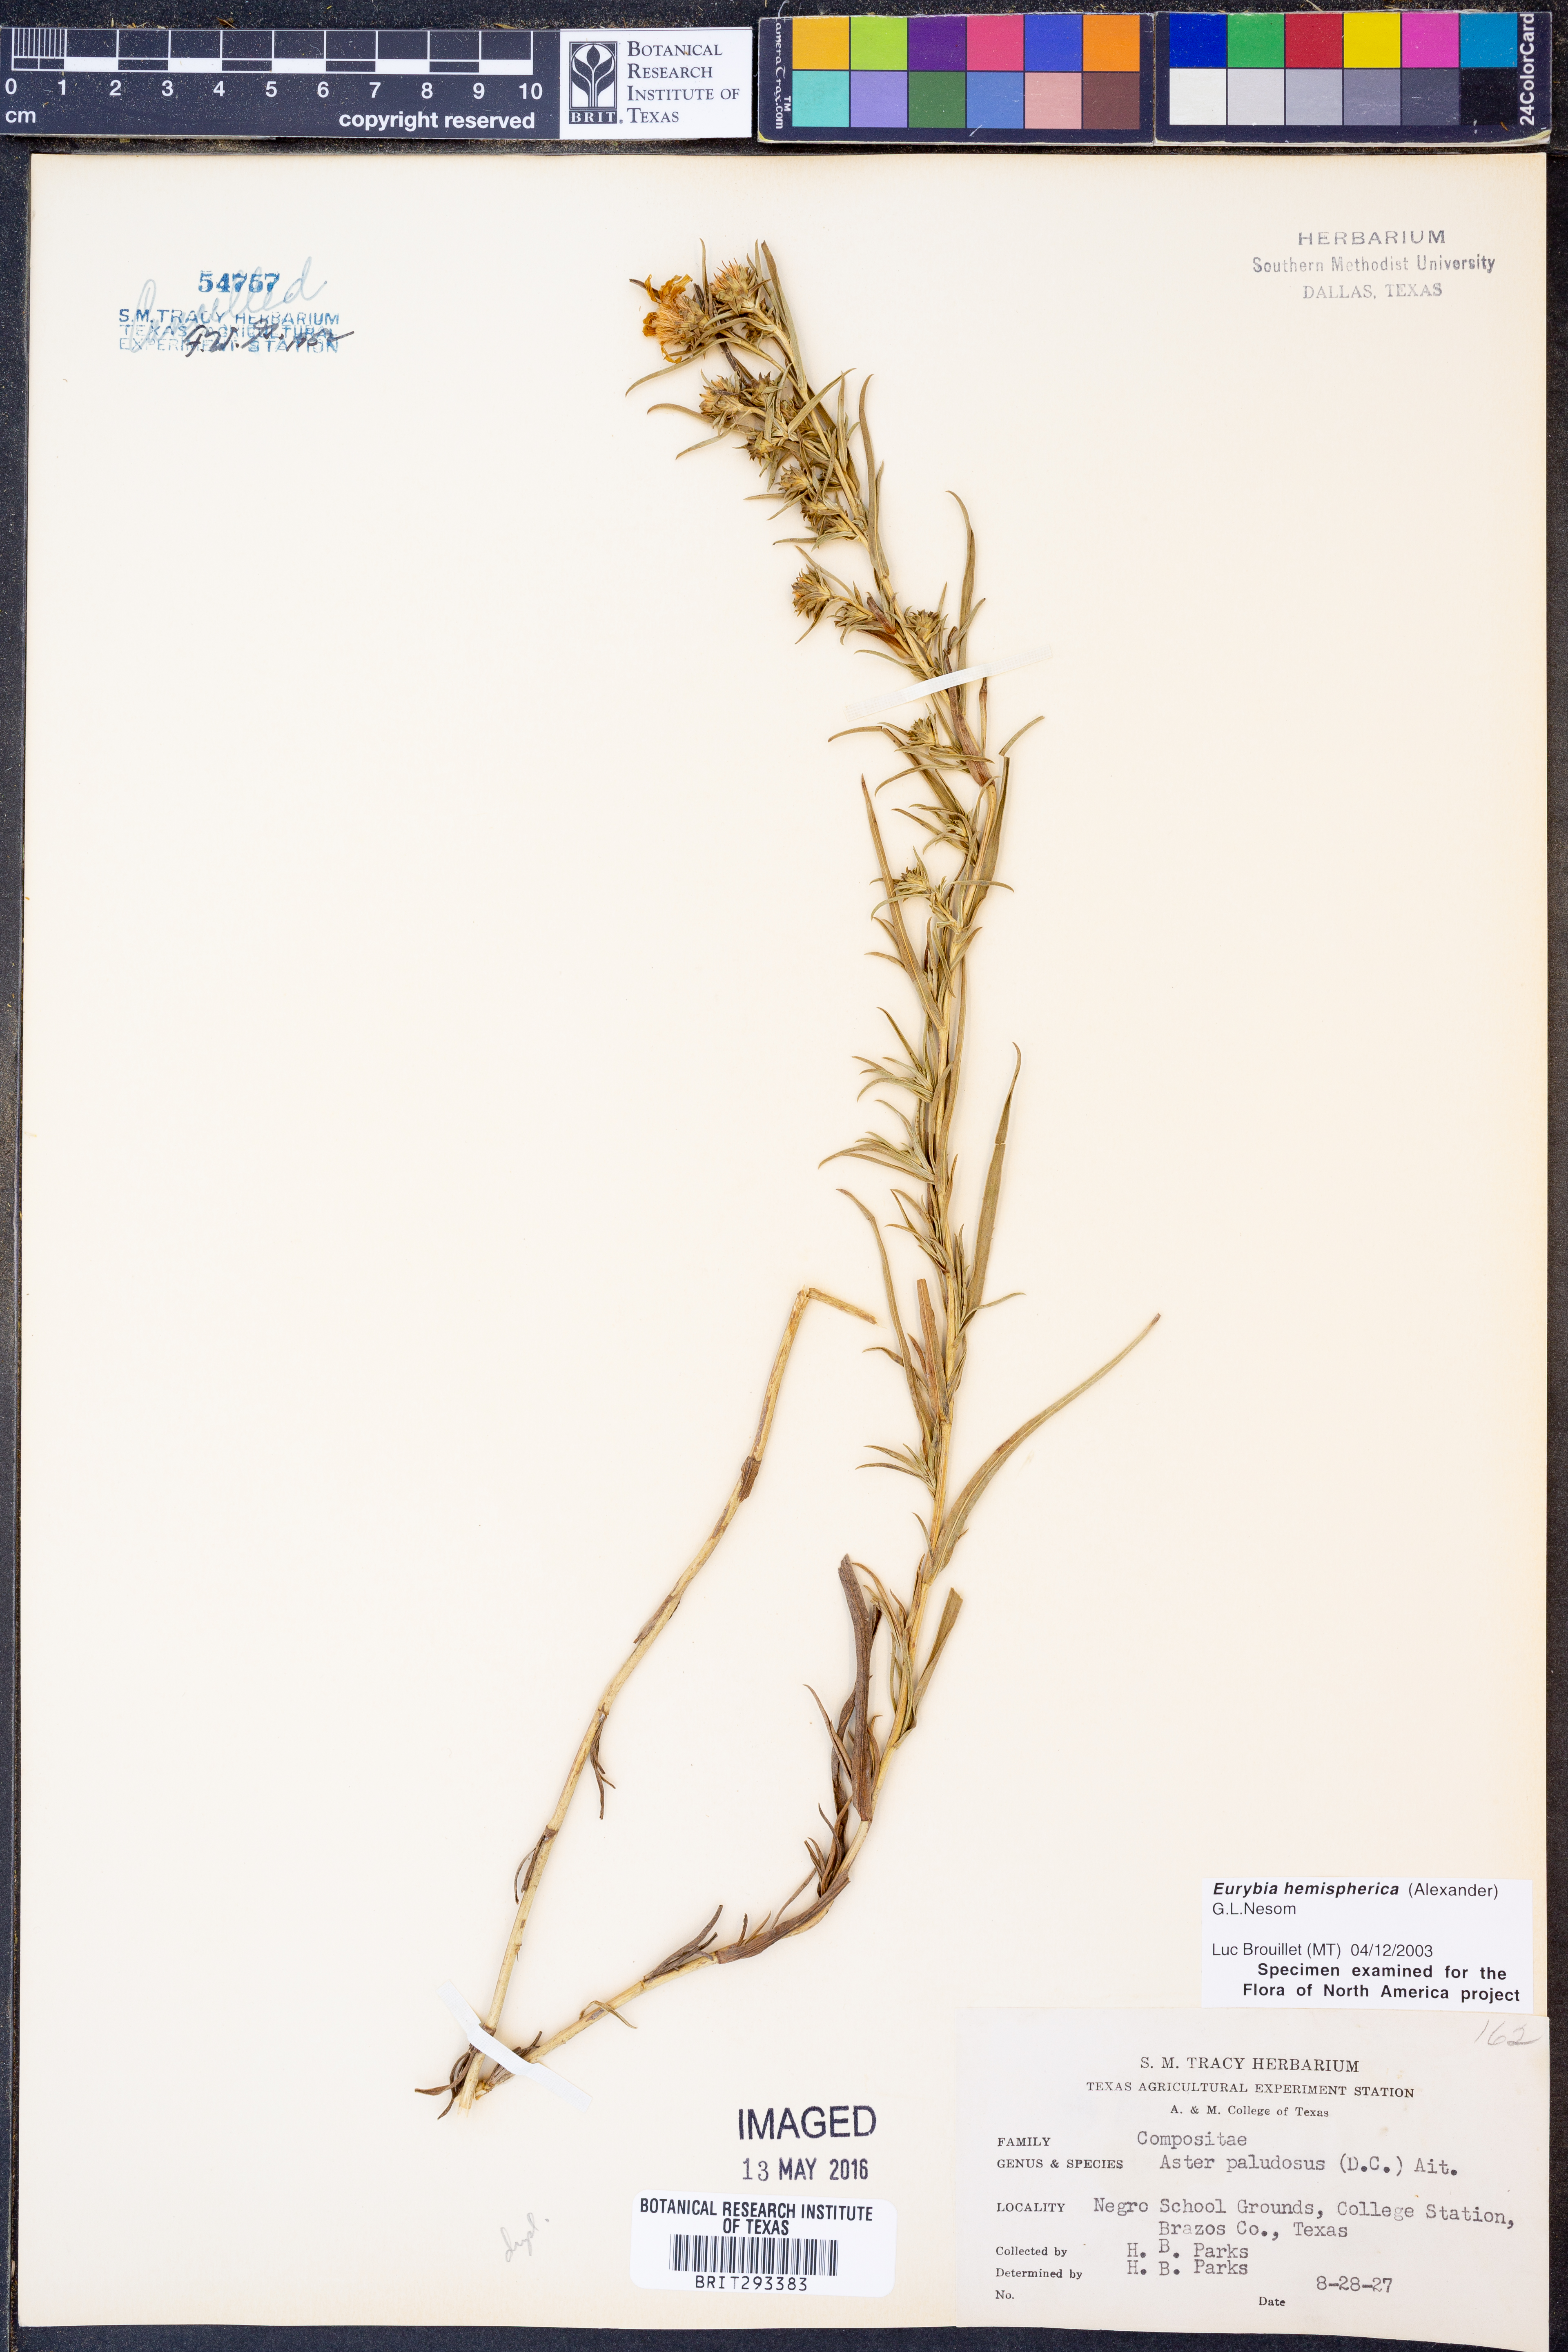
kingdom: Plantae
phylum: Tracheophyta
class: Magnoliopsida
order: Asterales
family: Asteraceae
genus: Eurybia
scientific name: Eurybia hemispherica
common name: Showy aster
